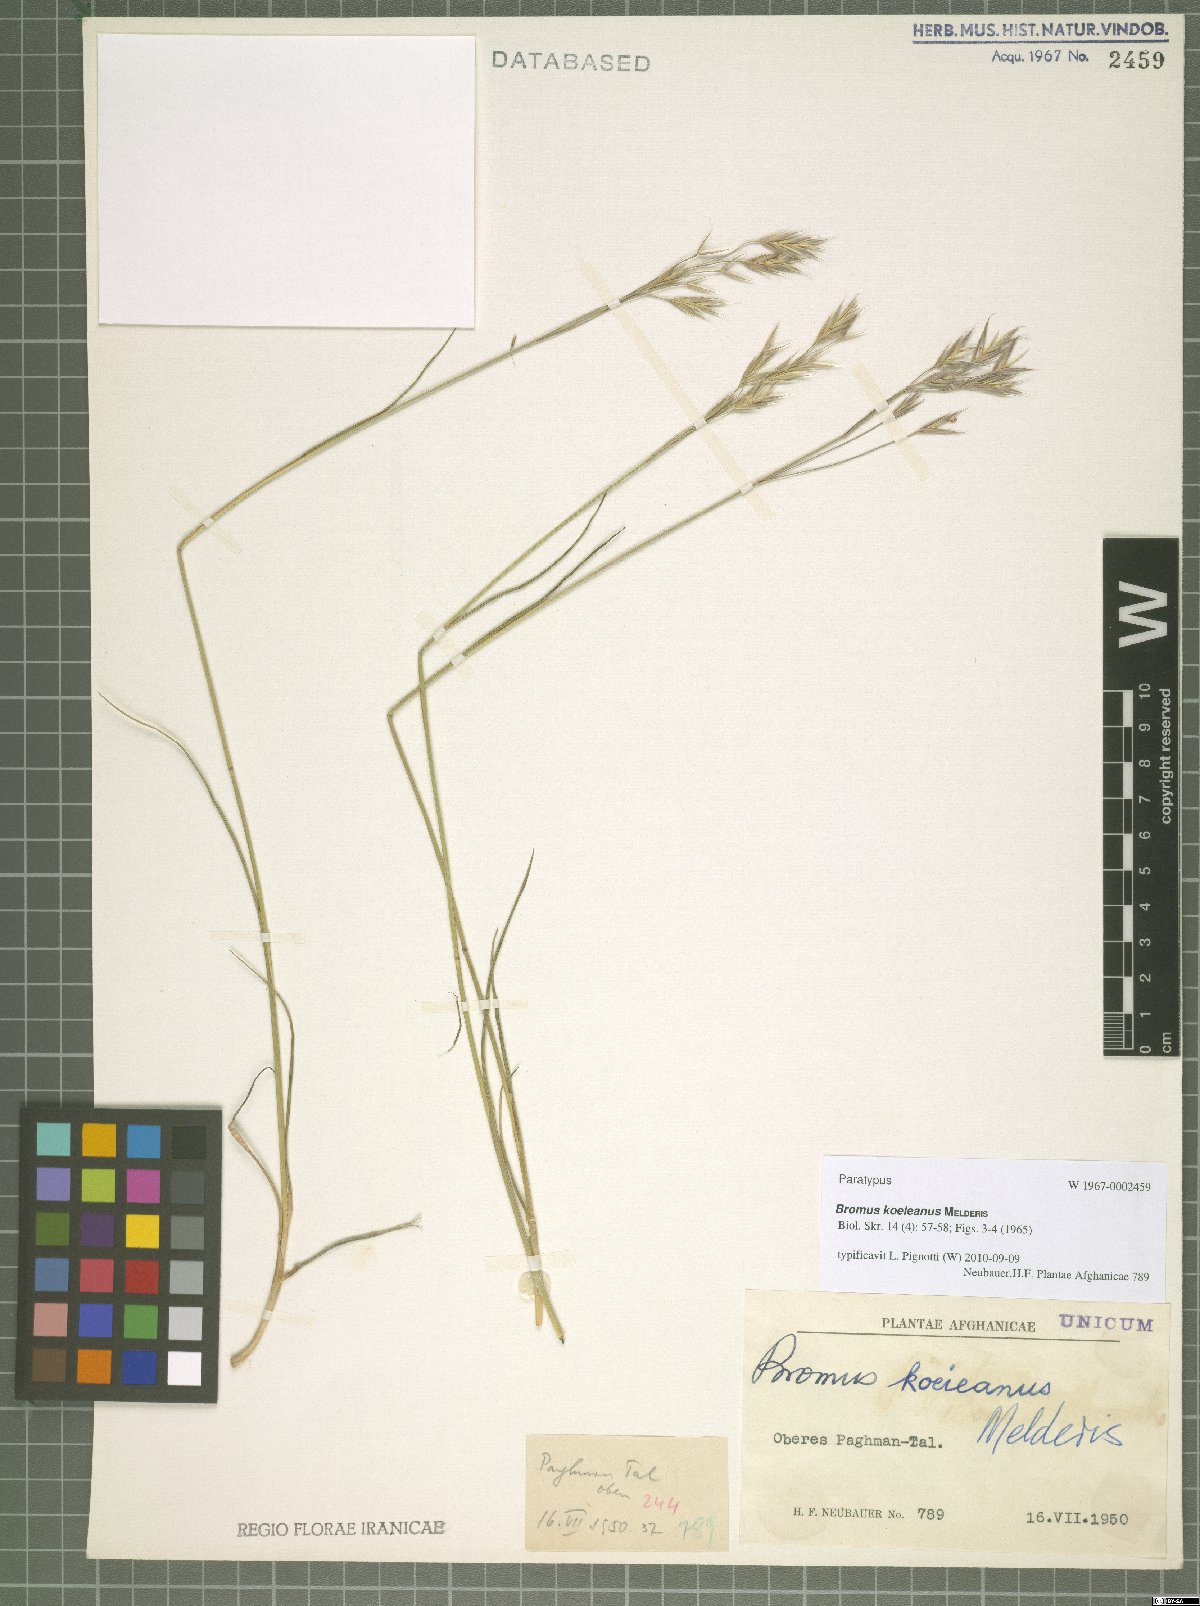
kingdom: Plantae
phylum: Tracheophyta
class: Liliopsida
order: Poales
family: Poaceae
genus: Bromus
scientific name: Bromus koeieanus
